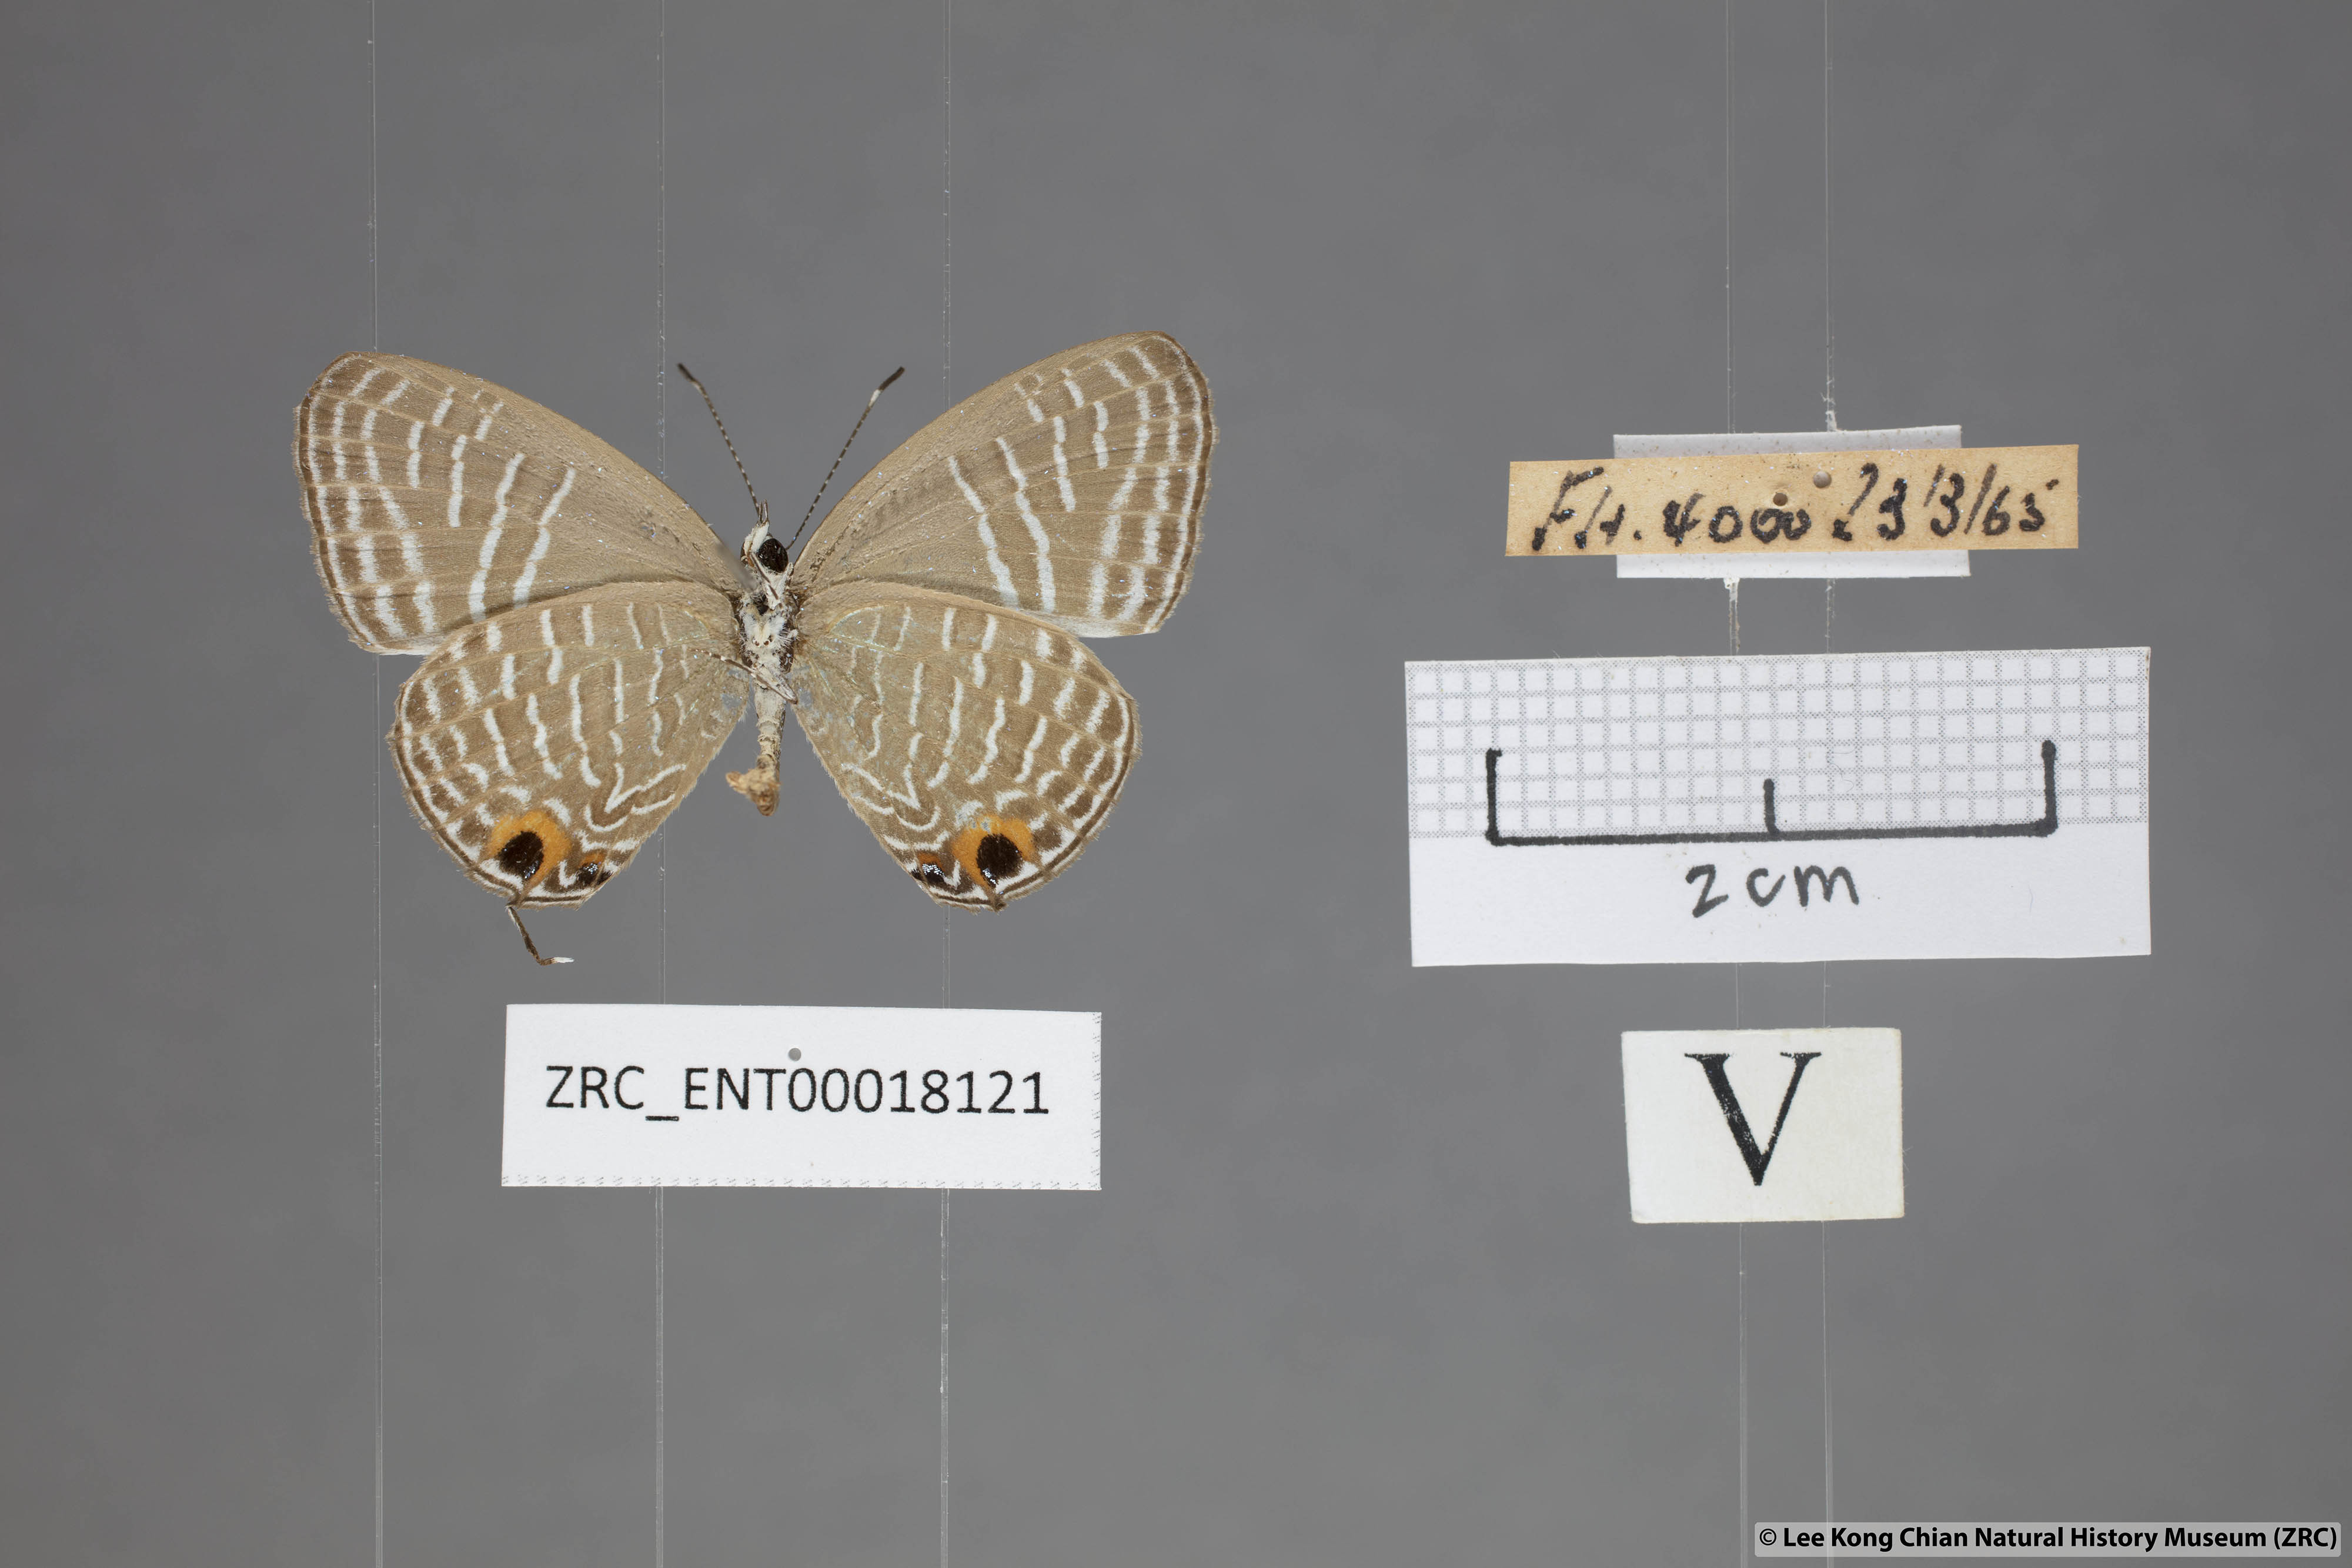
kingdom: Animalia
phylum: Arthropoda
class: Insecta
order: Lepidoptera
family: Lycaenidae
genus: Jamides
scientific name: Jamides elpis
